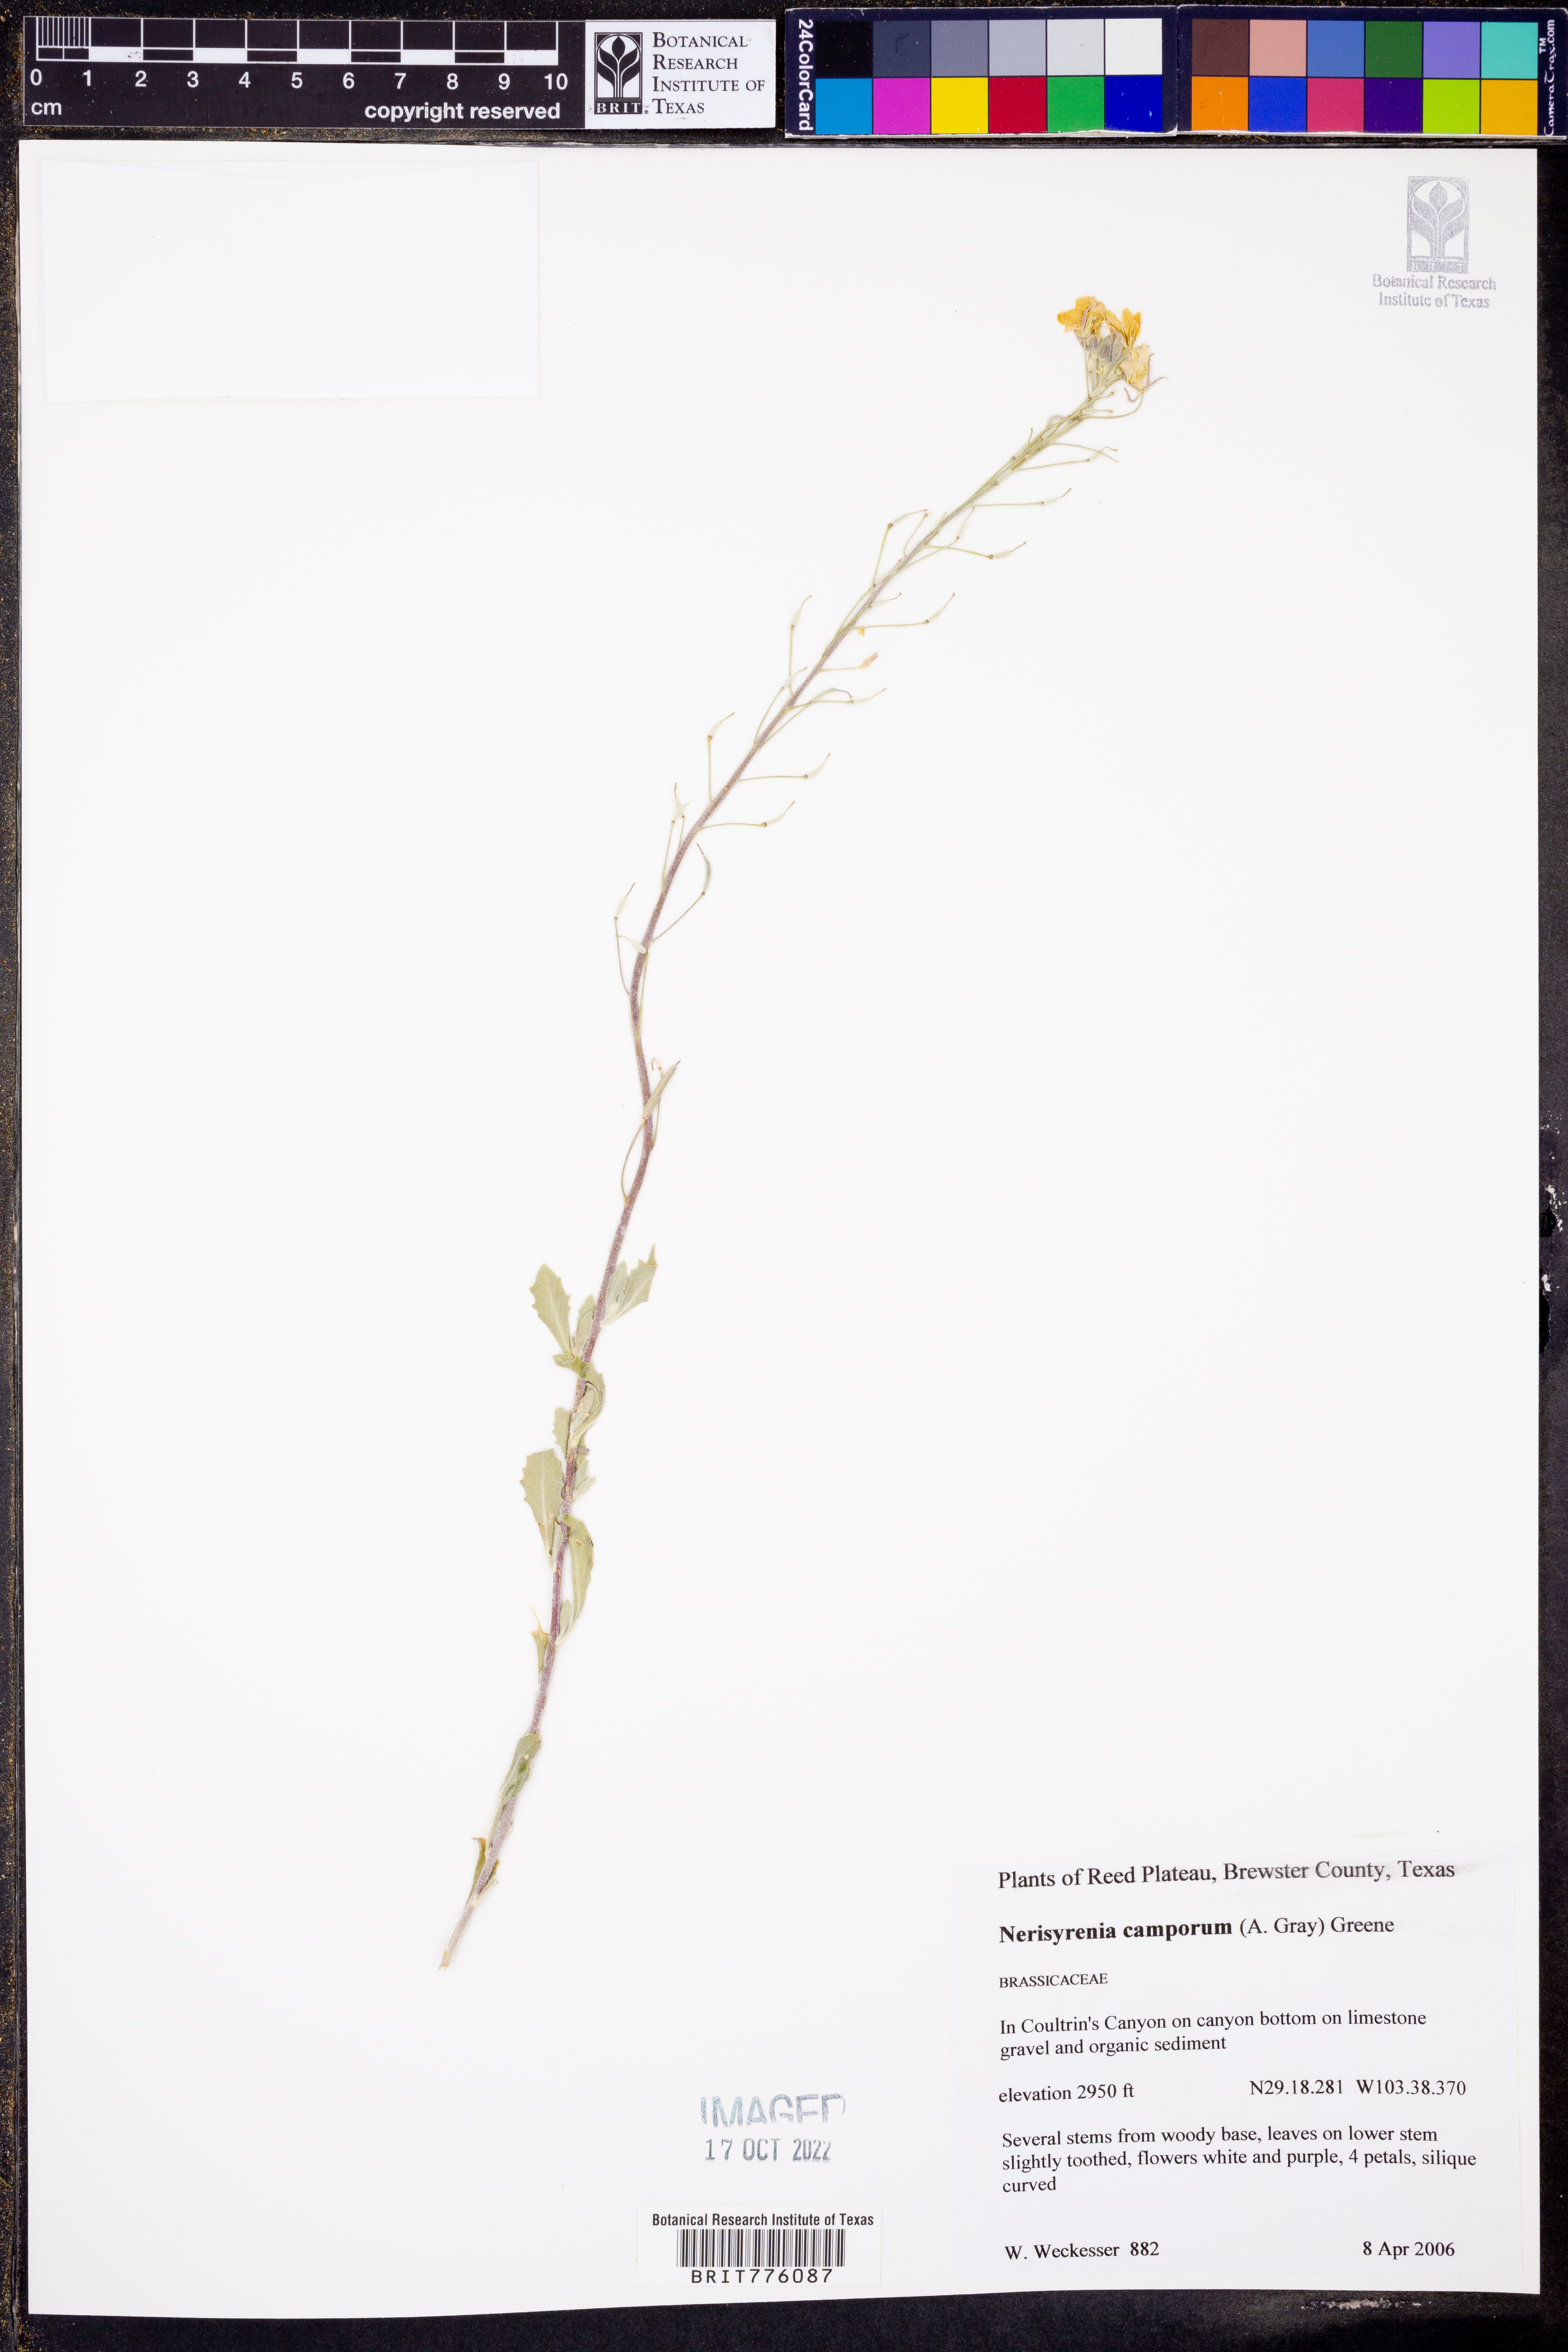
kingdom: Plantae
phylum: Tracheophyta
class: Magnoliopsida
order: Brassicales
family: Brassicaceae
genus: Nerisyrenia
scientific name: Nerisyrenia camporum
